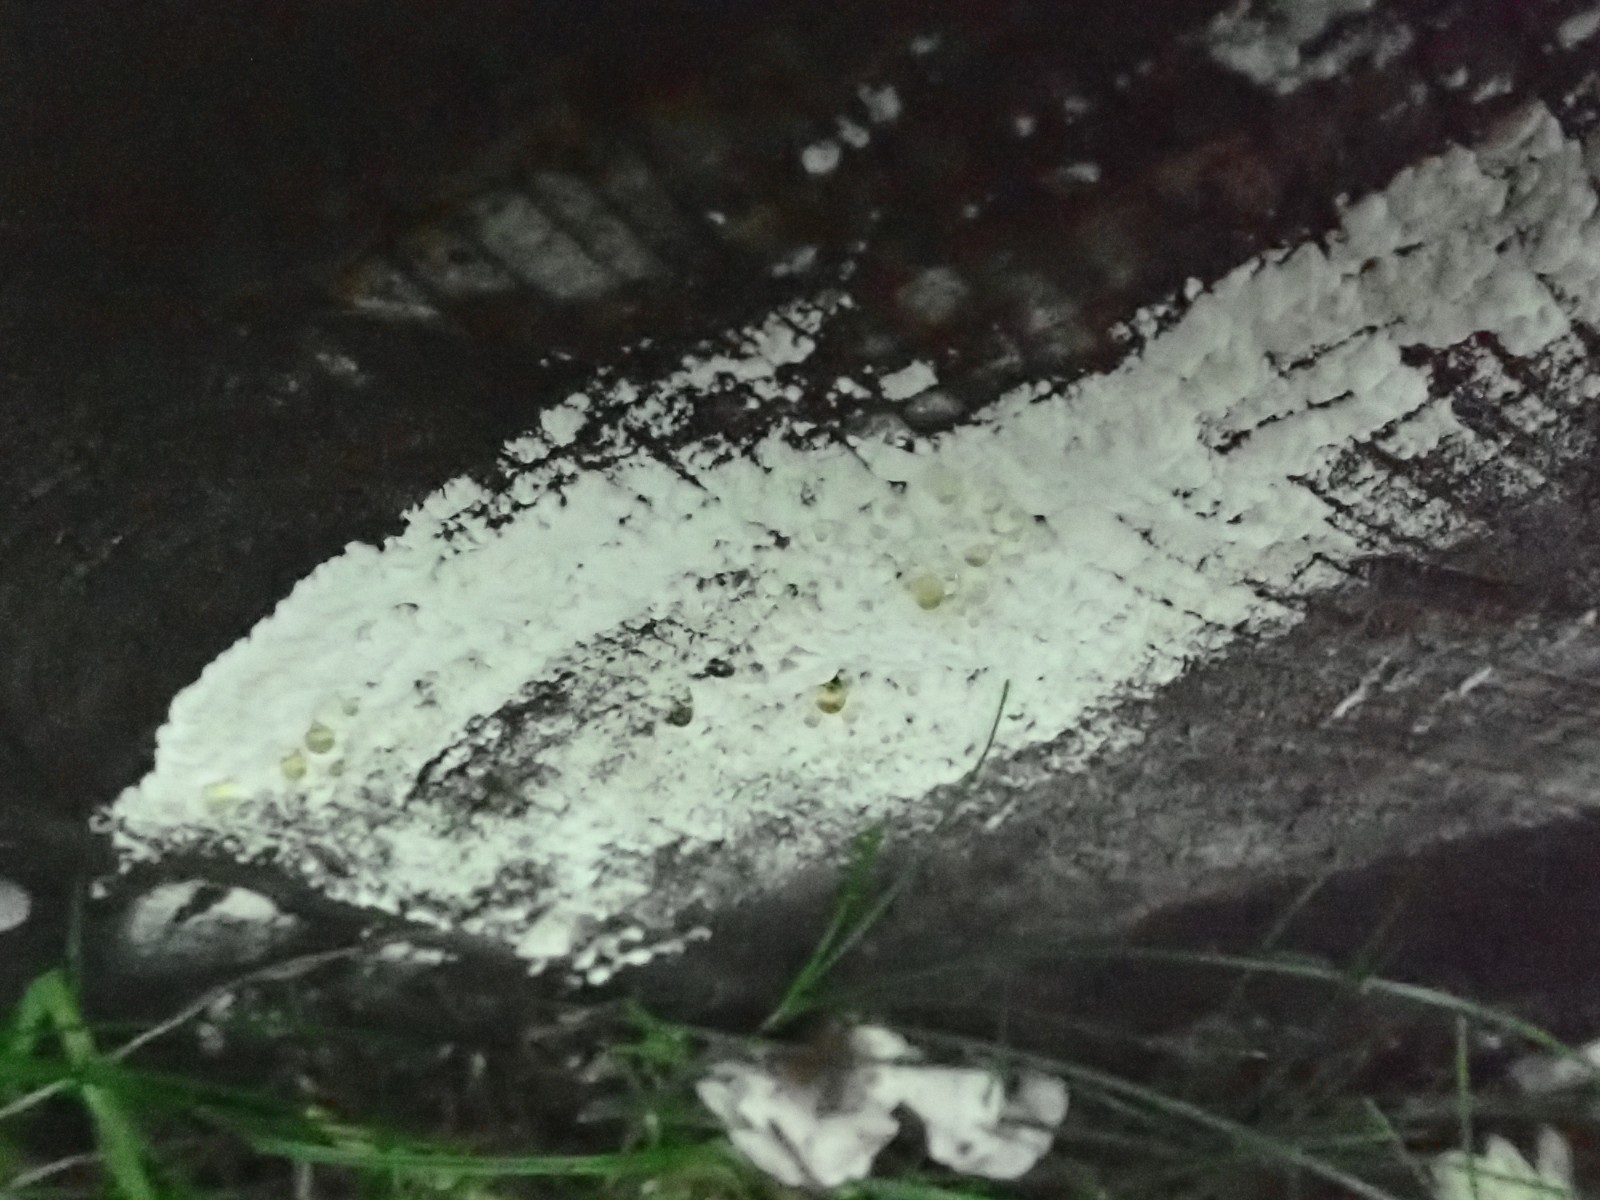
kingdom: Fungi
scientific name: Fungi
